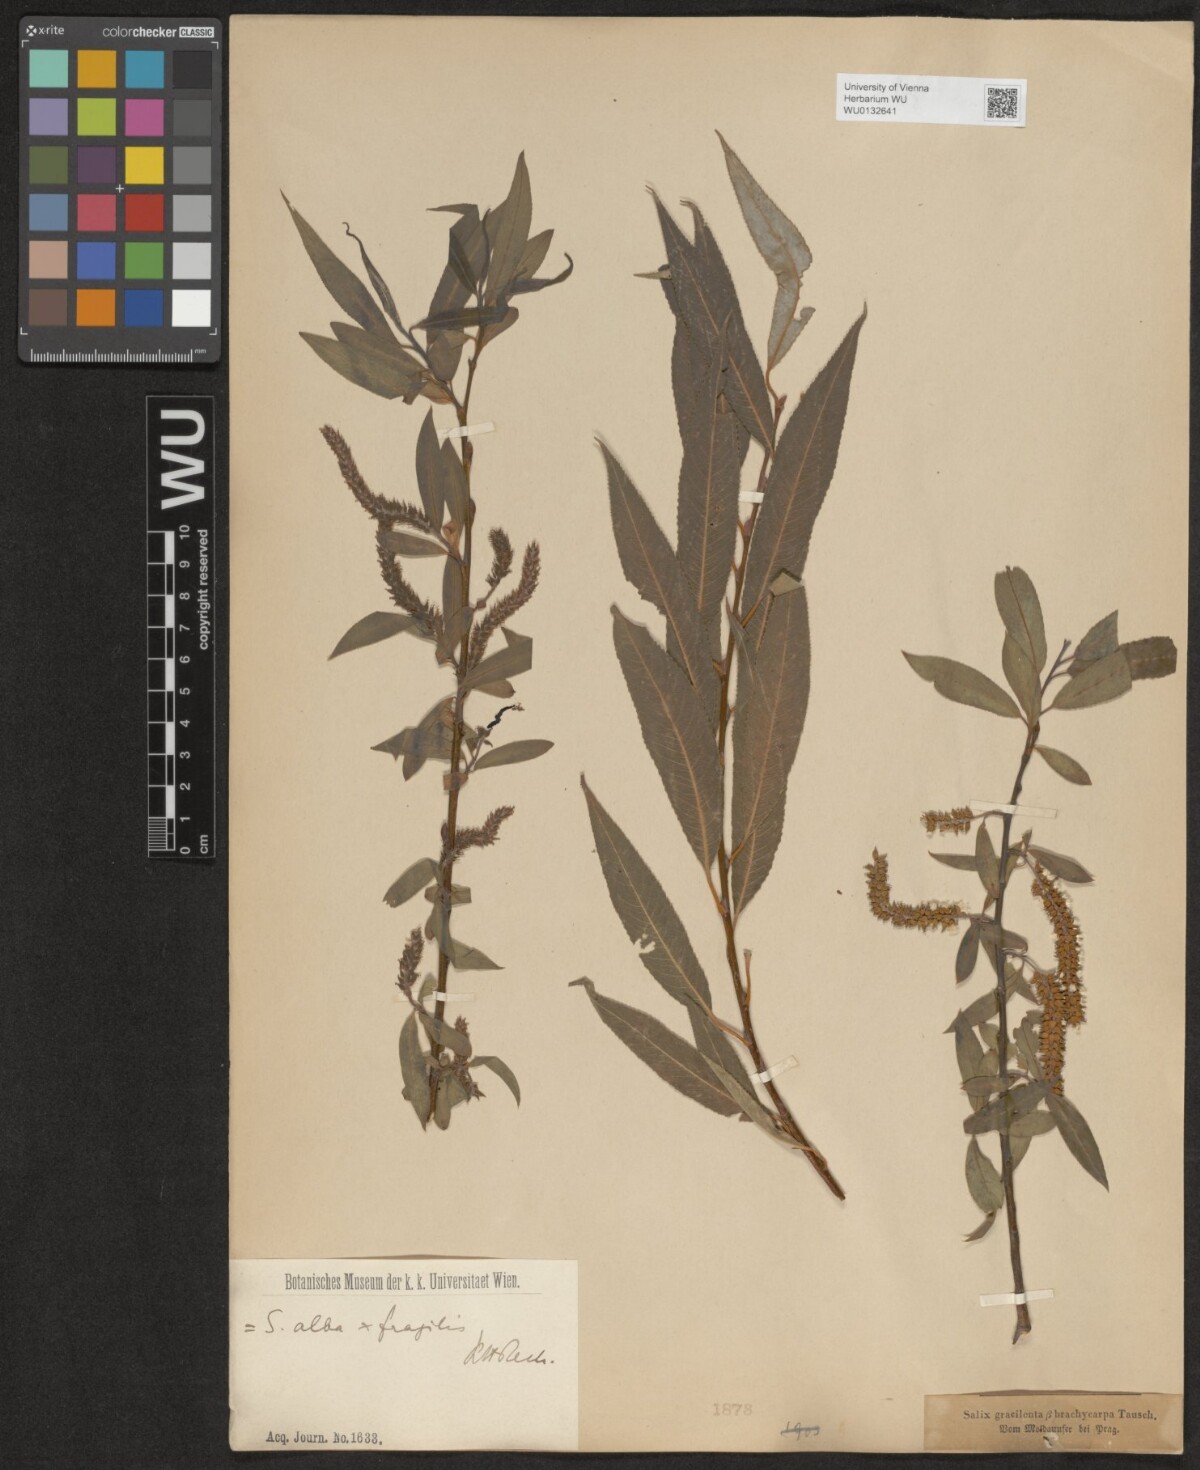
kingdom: Plantae
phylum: Tracheophyta
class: Magnoliopsida
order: Malpighiales
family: Salicaceae
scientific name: Salicaceae
